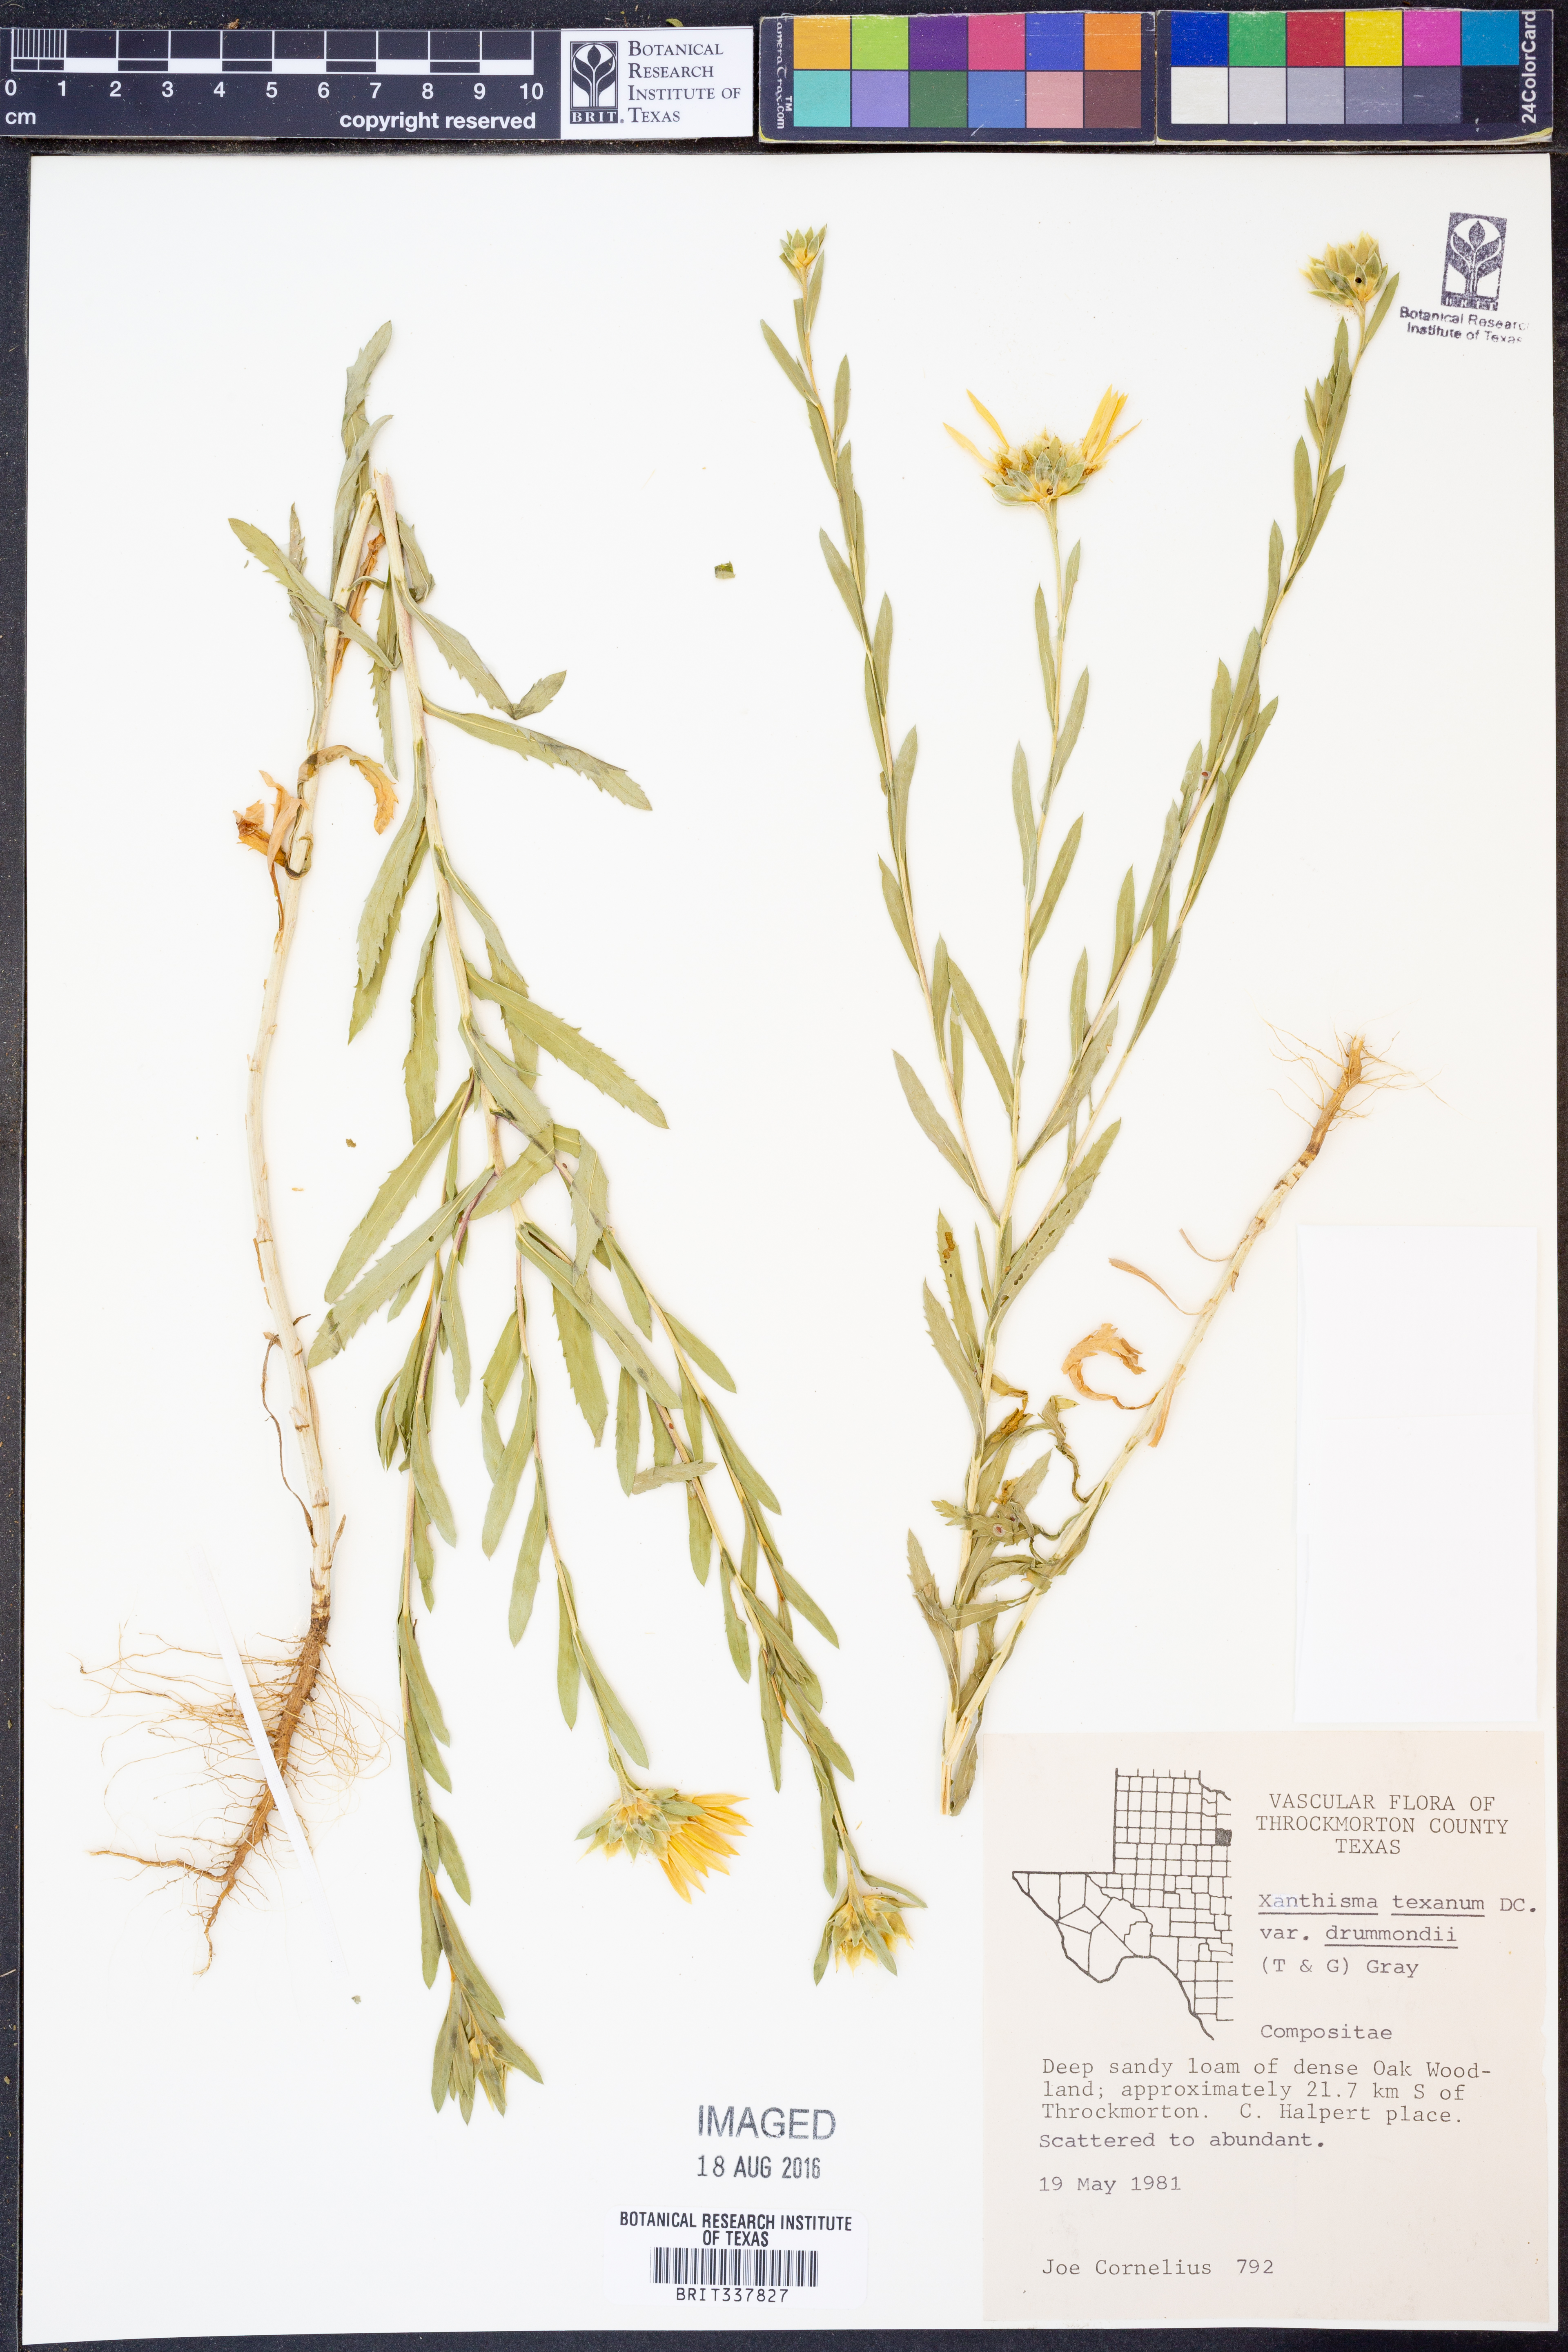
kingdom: Plantae
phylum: Tracheophyta
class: Magnoliopsida
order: Asterales
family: Asteraceae
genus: Xanthisma
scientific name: Xanthisma texanum
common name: Texas sleepy daisy
